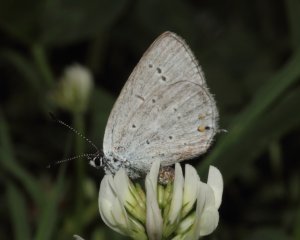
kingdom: Animalia
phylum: Arthropoda
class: Insecta
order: Lepidoptera
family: Lycaenidae
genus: Elkalyce
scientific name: Elkalyce amyntula
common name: Western Tailed-Blue
